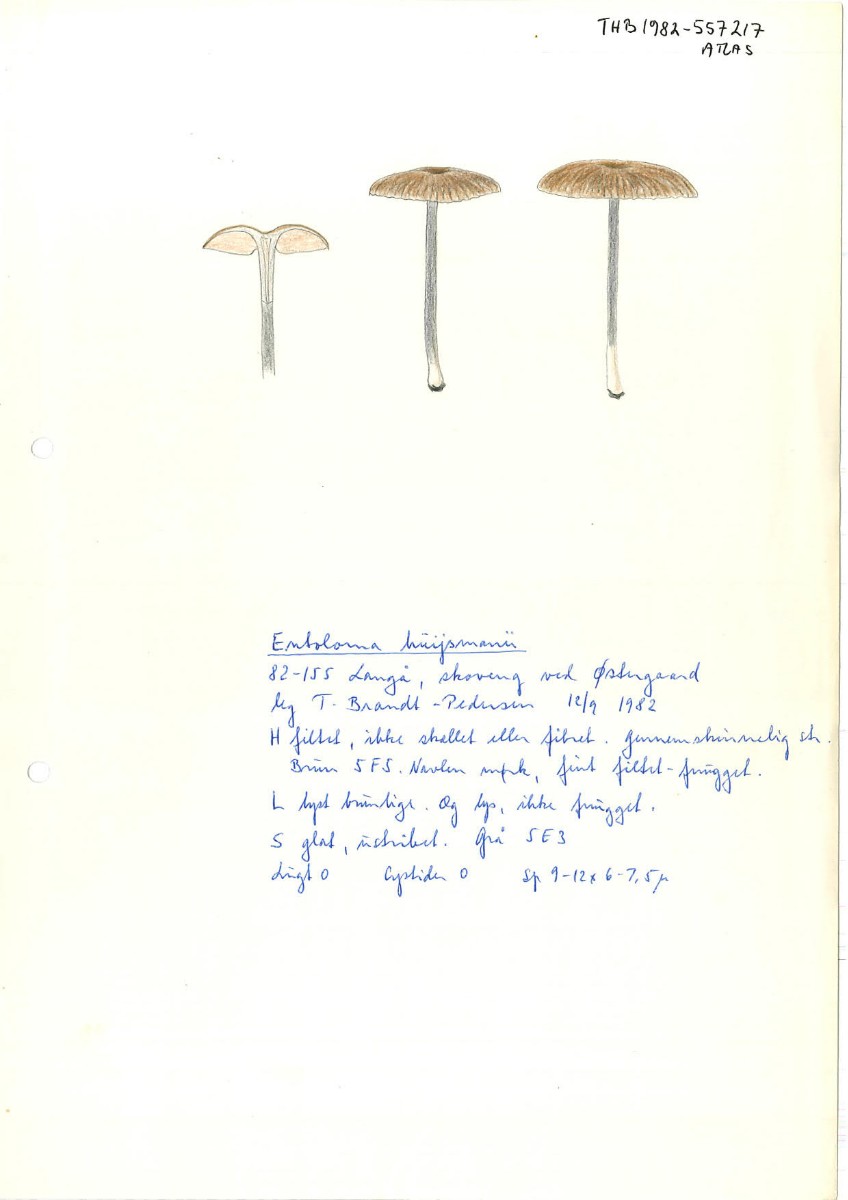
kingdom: Fungi
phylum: Basidiomycota
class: Agaricomycetes
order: Agaricales
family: Entolomataceae
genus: Entoloma
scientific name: Entoloma huijsmanii
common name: tosporet rødblad
